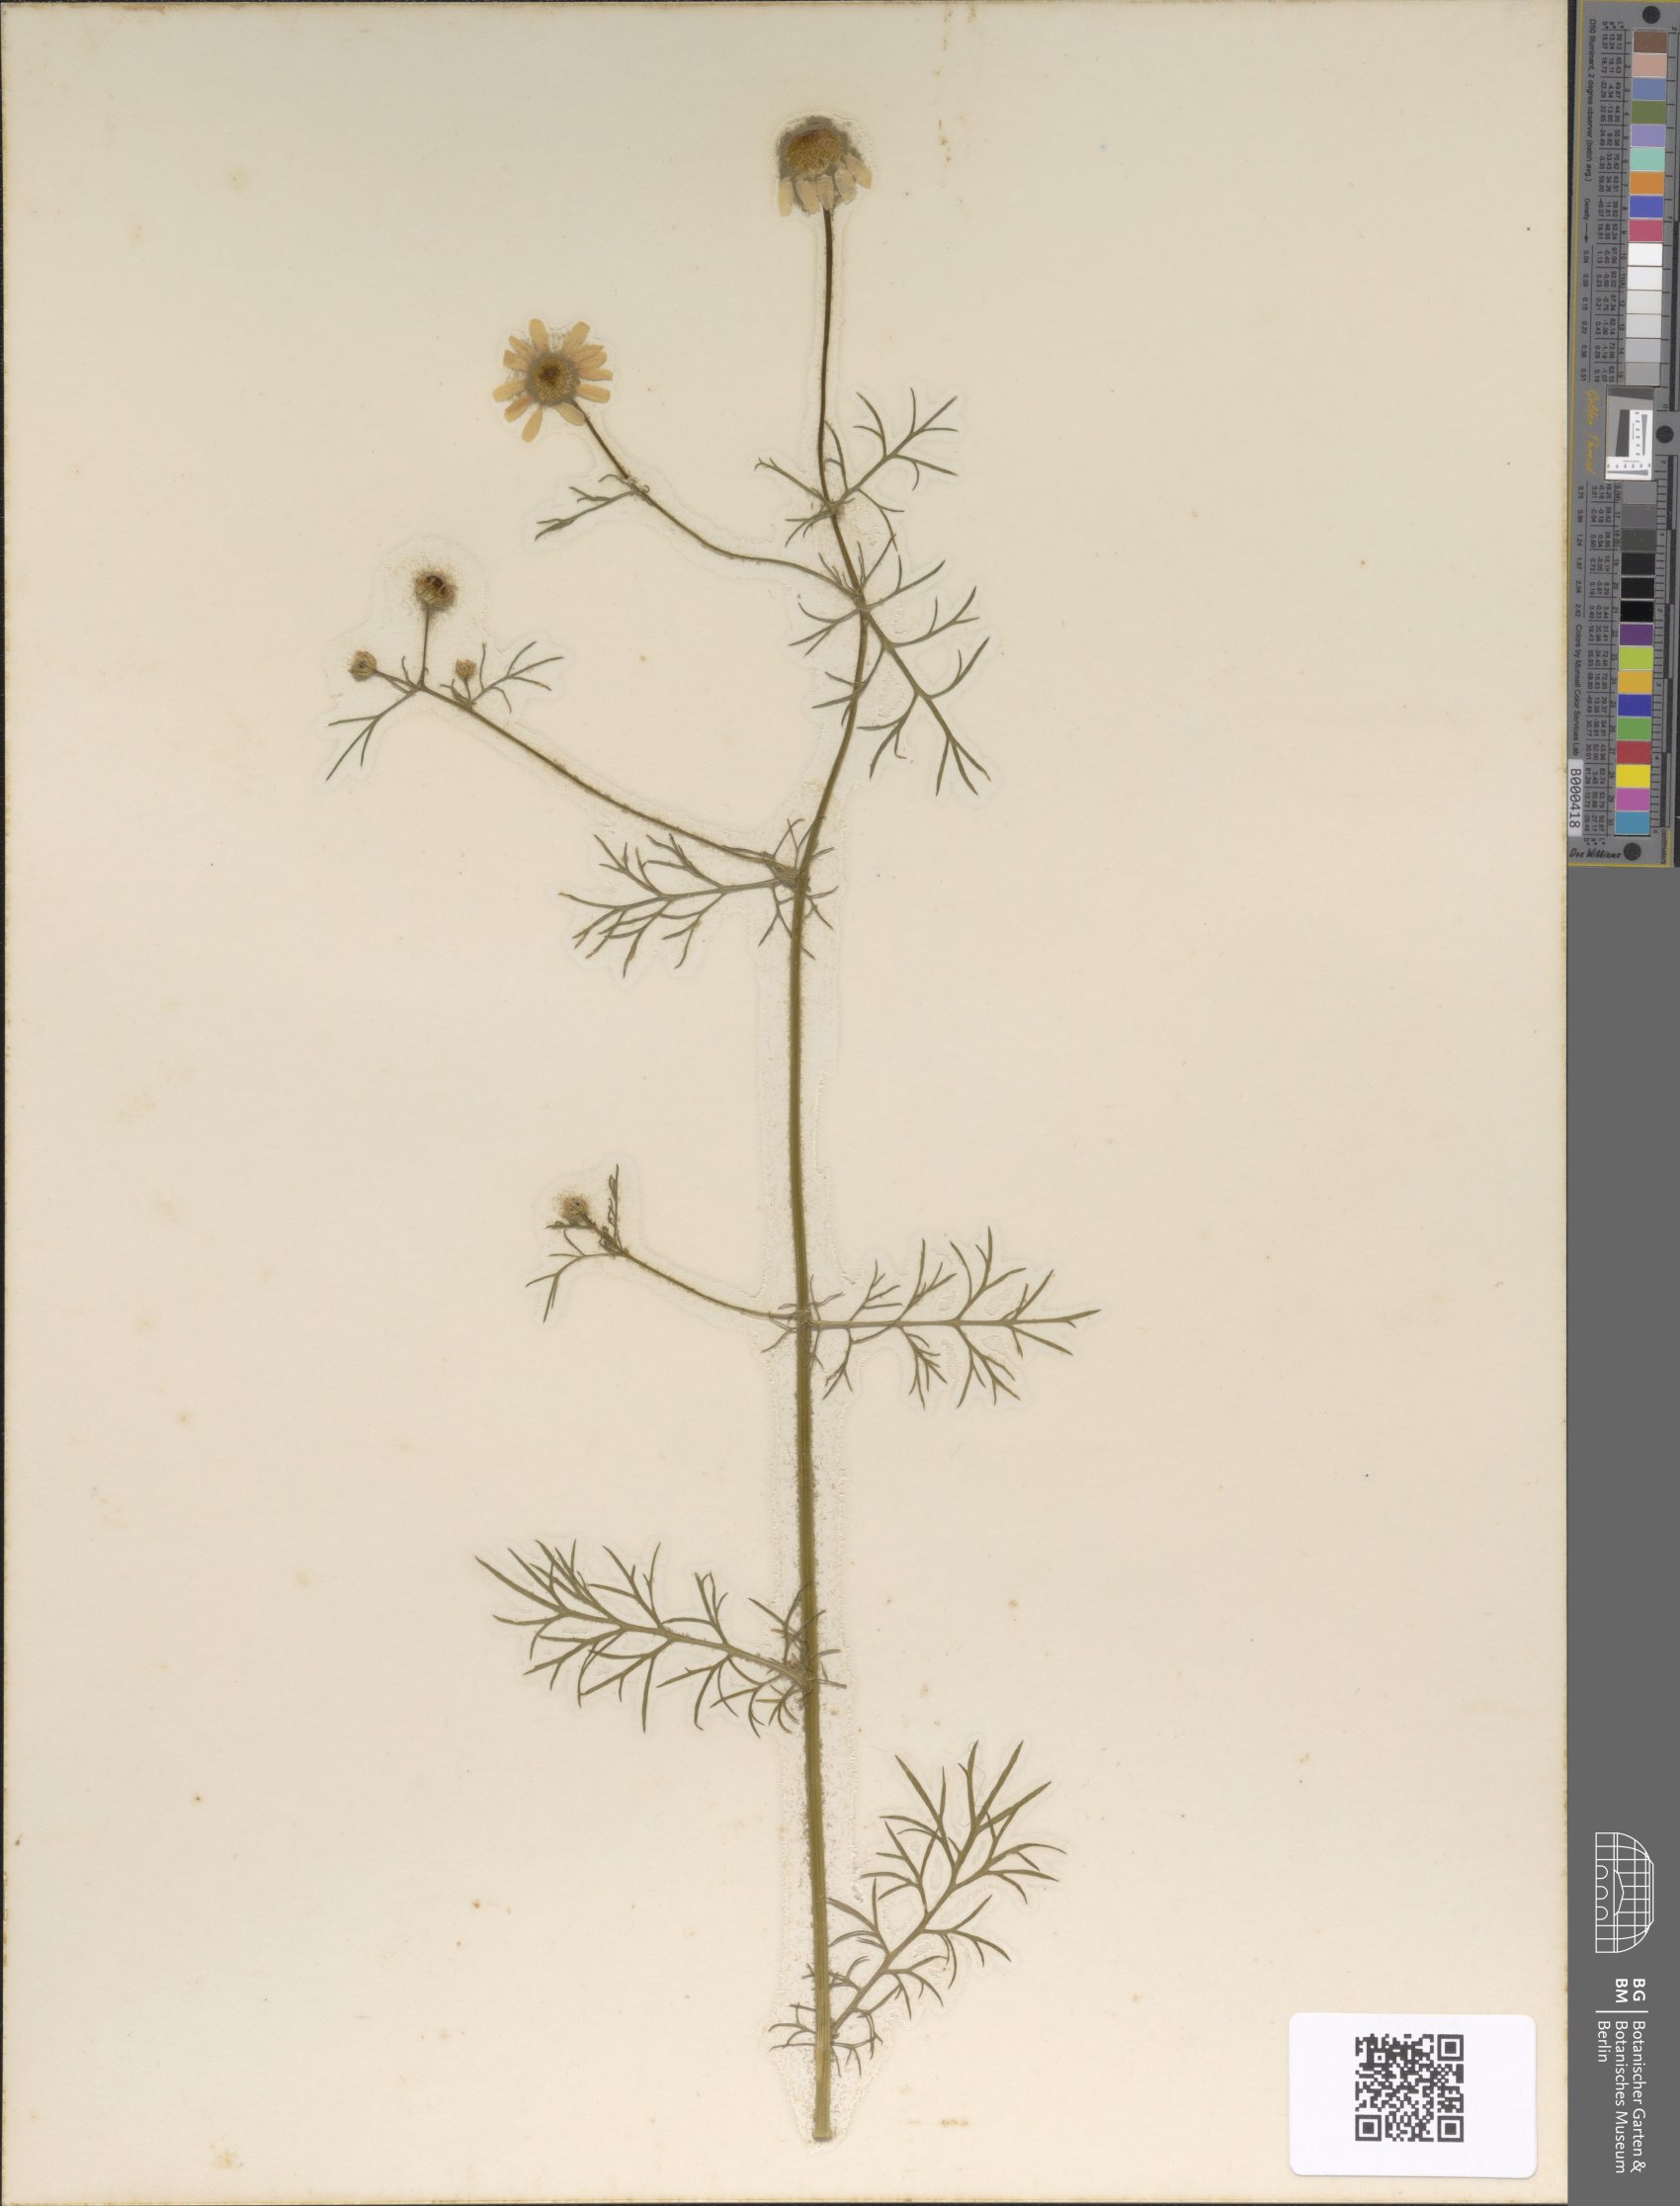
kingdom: Plantae
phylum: Tracheophyta
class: Magnoliopsida
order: Asterales
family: Asteraceae
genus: Matricaria
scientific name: Matricaria chamomilla
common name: Scented mayweed
